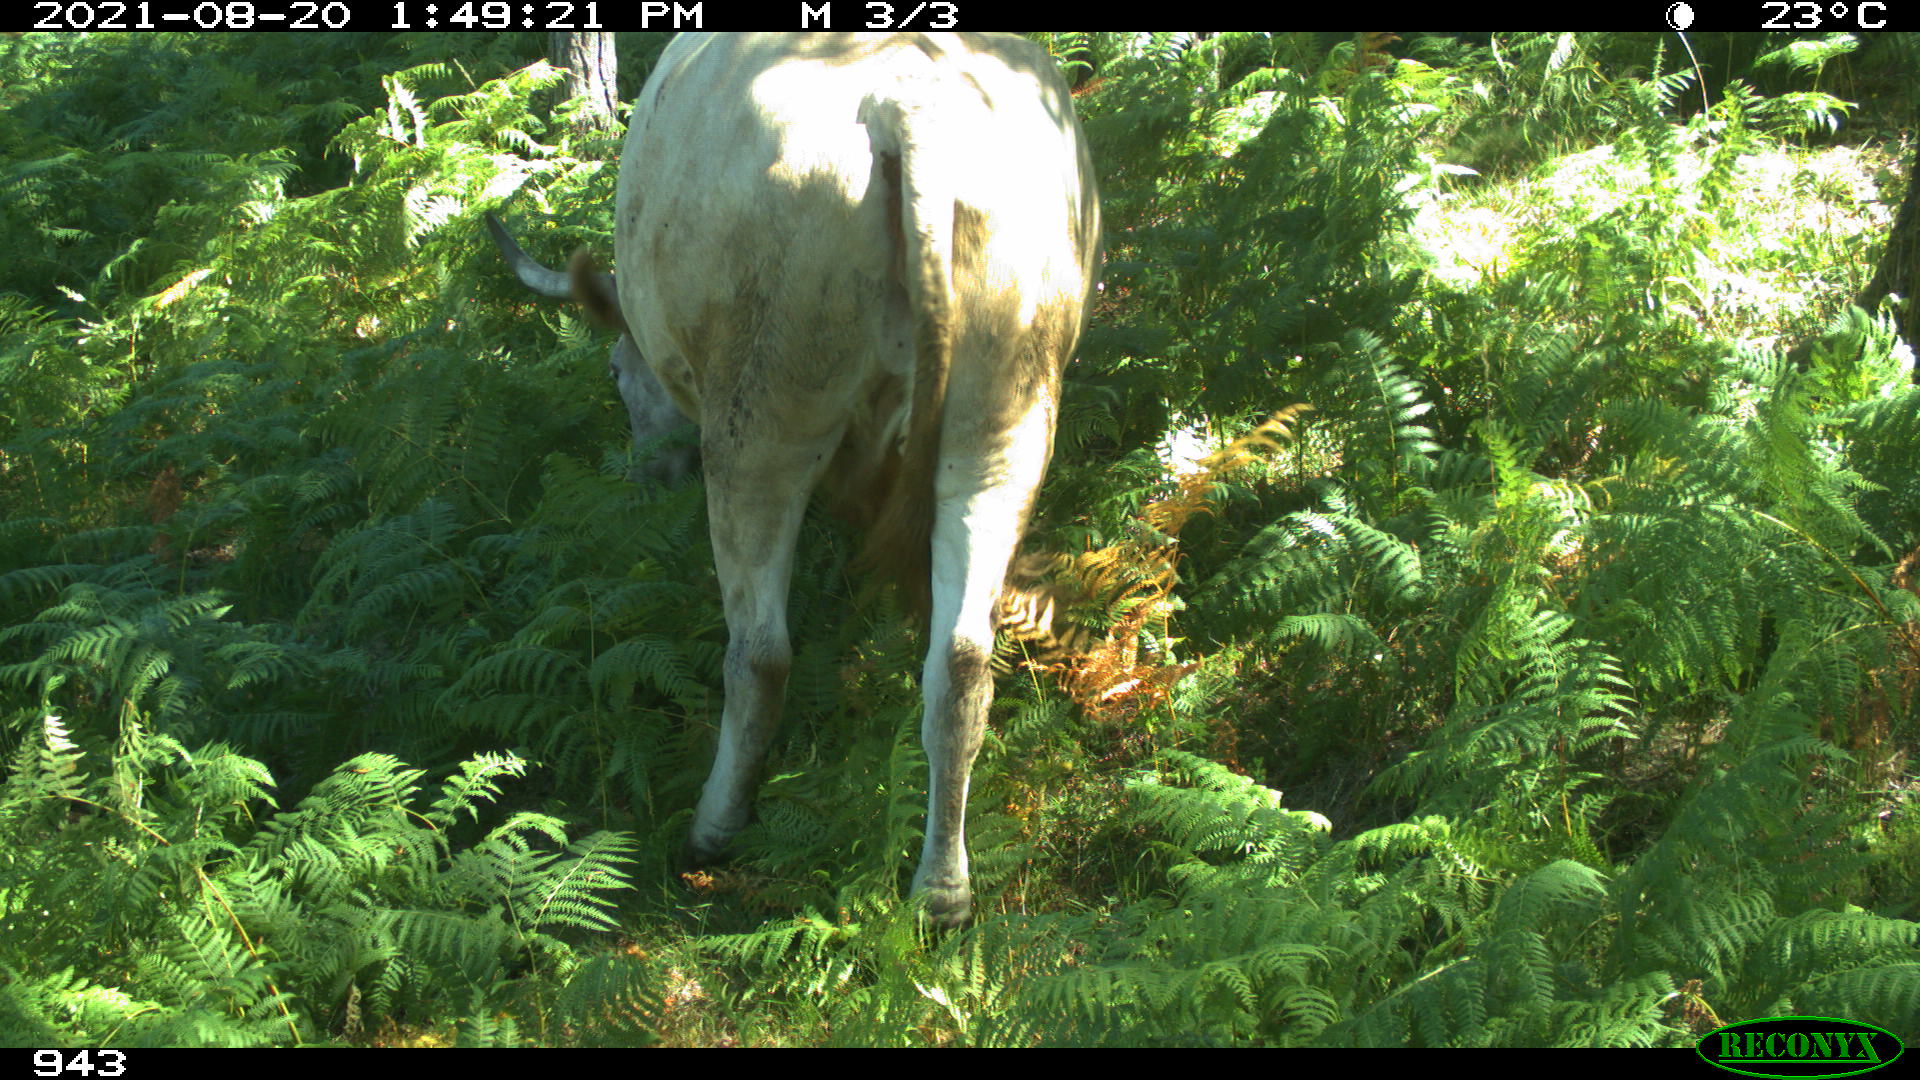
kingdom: Animalia
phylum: Chordata
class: Mammalia
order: Artiodactyla
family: Bovidae
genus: Bos
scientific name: Bos taurus
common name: Domesticated cattle
